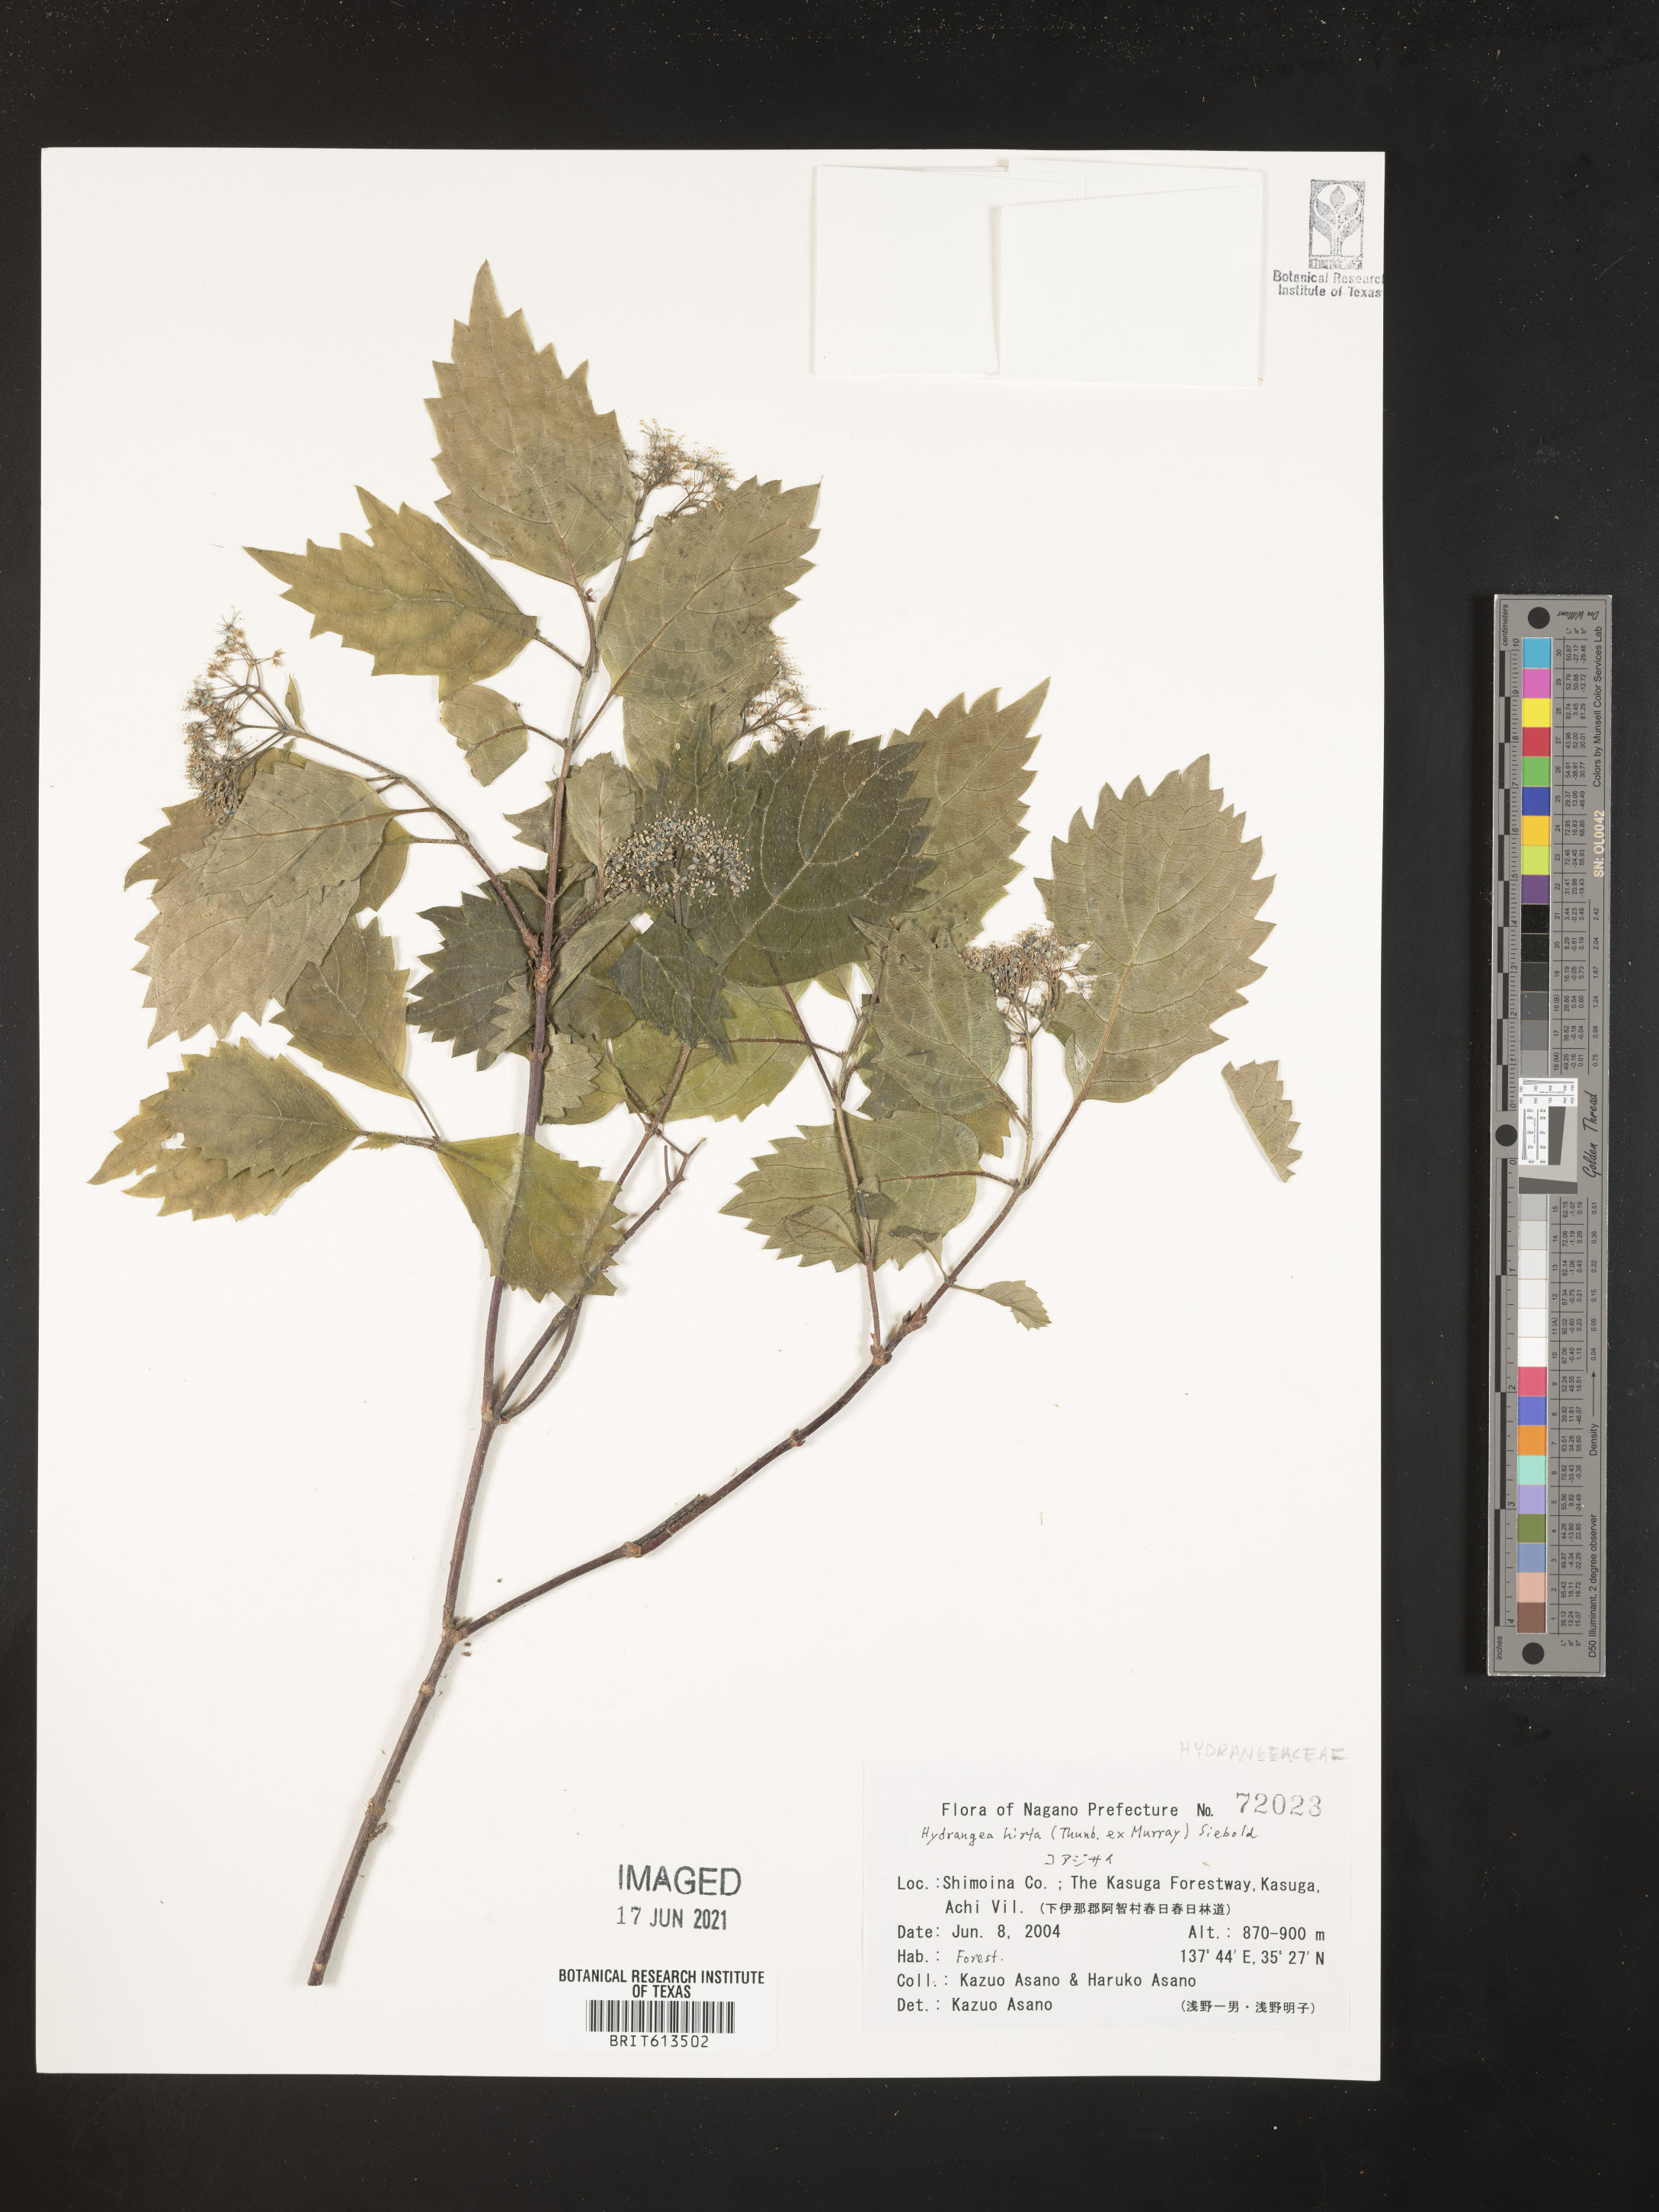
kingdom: Plantae
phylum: Tracheophyta
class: Magnoliopsida
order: Cornales
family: Hydrangeaceae
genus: Hydrangea
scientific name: Hydrangea hirta
